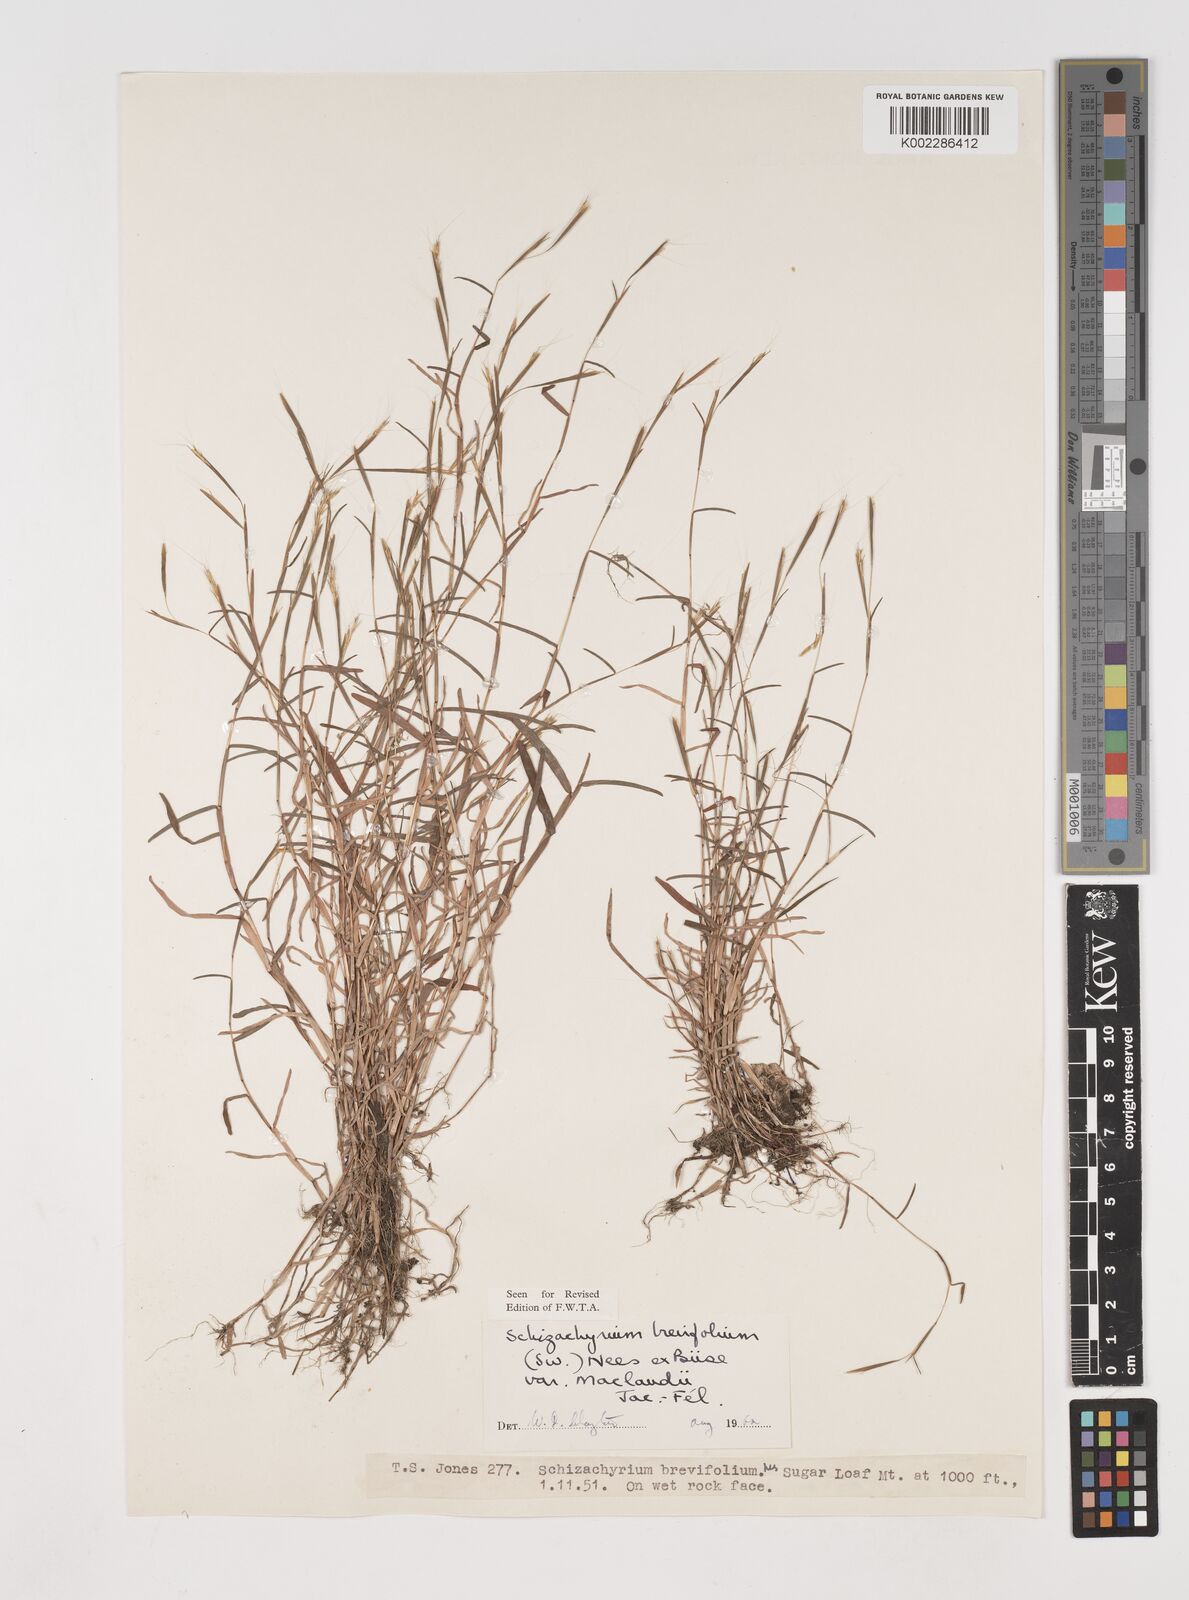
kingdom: Plantae
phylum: Tracheophyta
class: Liliopsida
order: Poales
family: Poaceae
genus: Schizachyrium
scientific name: Schizachyrium maclaudii
